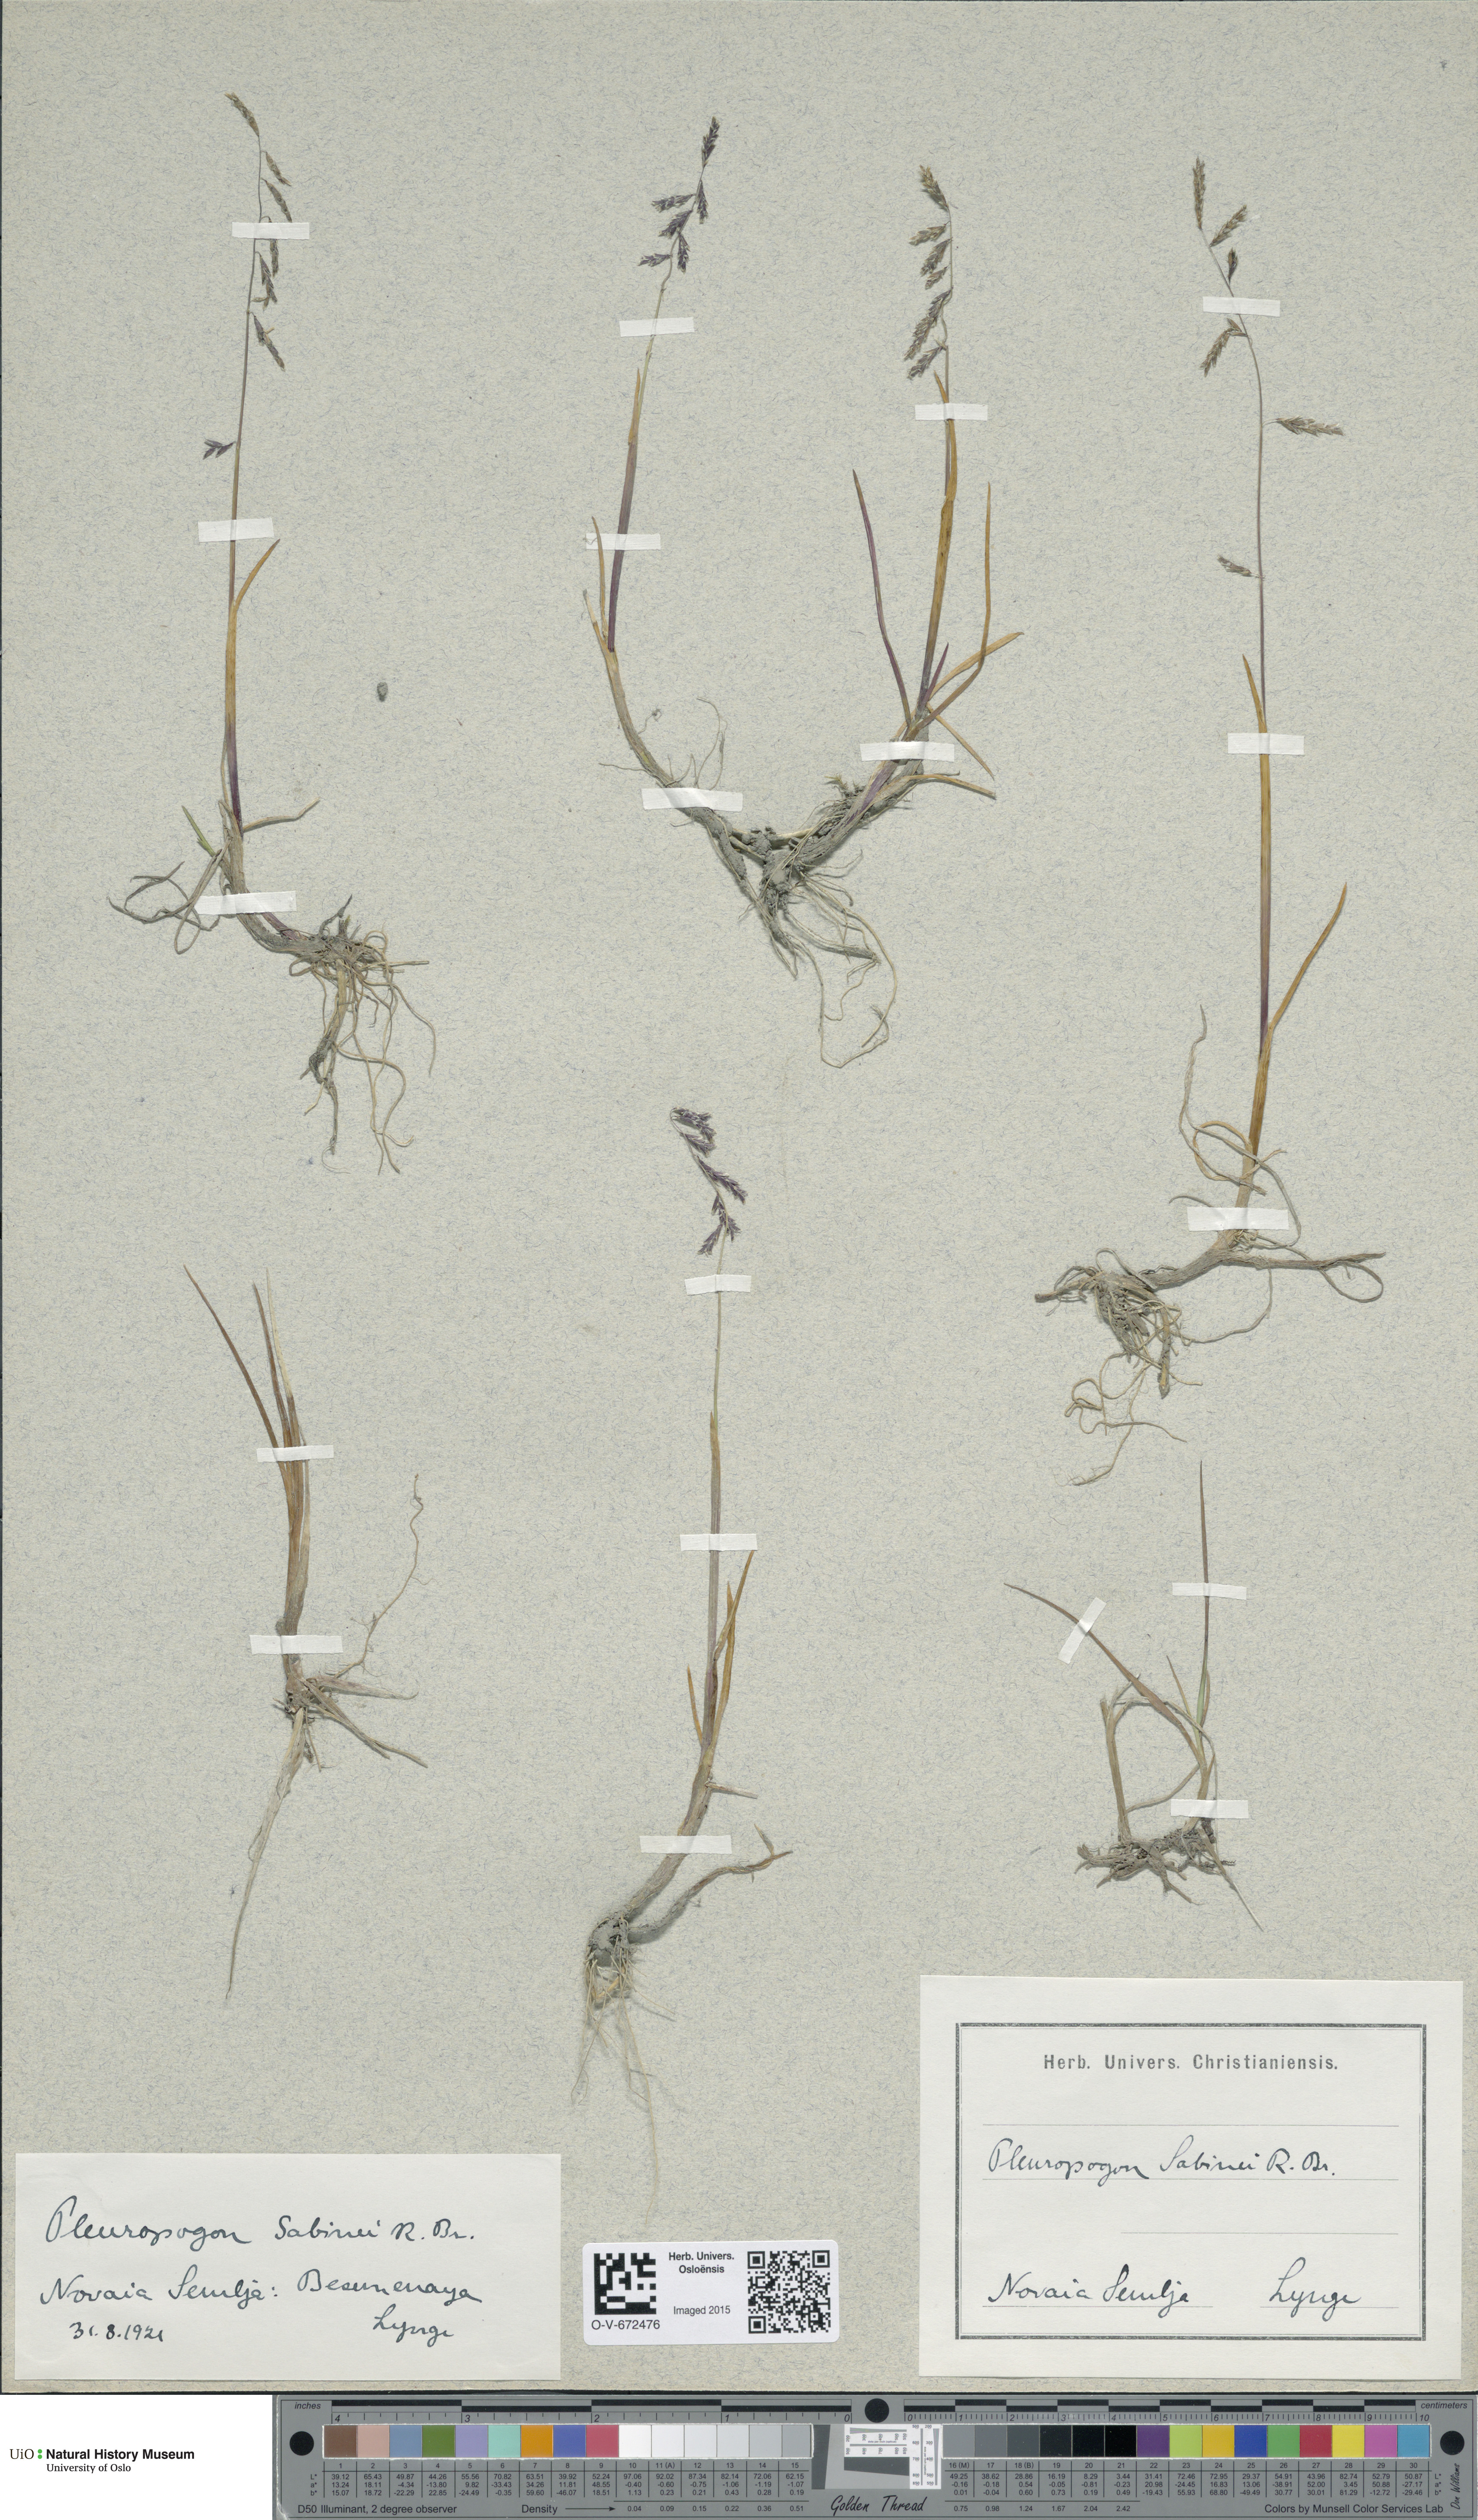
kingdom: Plantae
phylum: Tracheophyta
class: Liliopsida
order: Poales
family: Poaceae
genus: Pleuropogon
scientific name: Pleuropogon sabinei
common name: Sabine's false semaphoregrass
